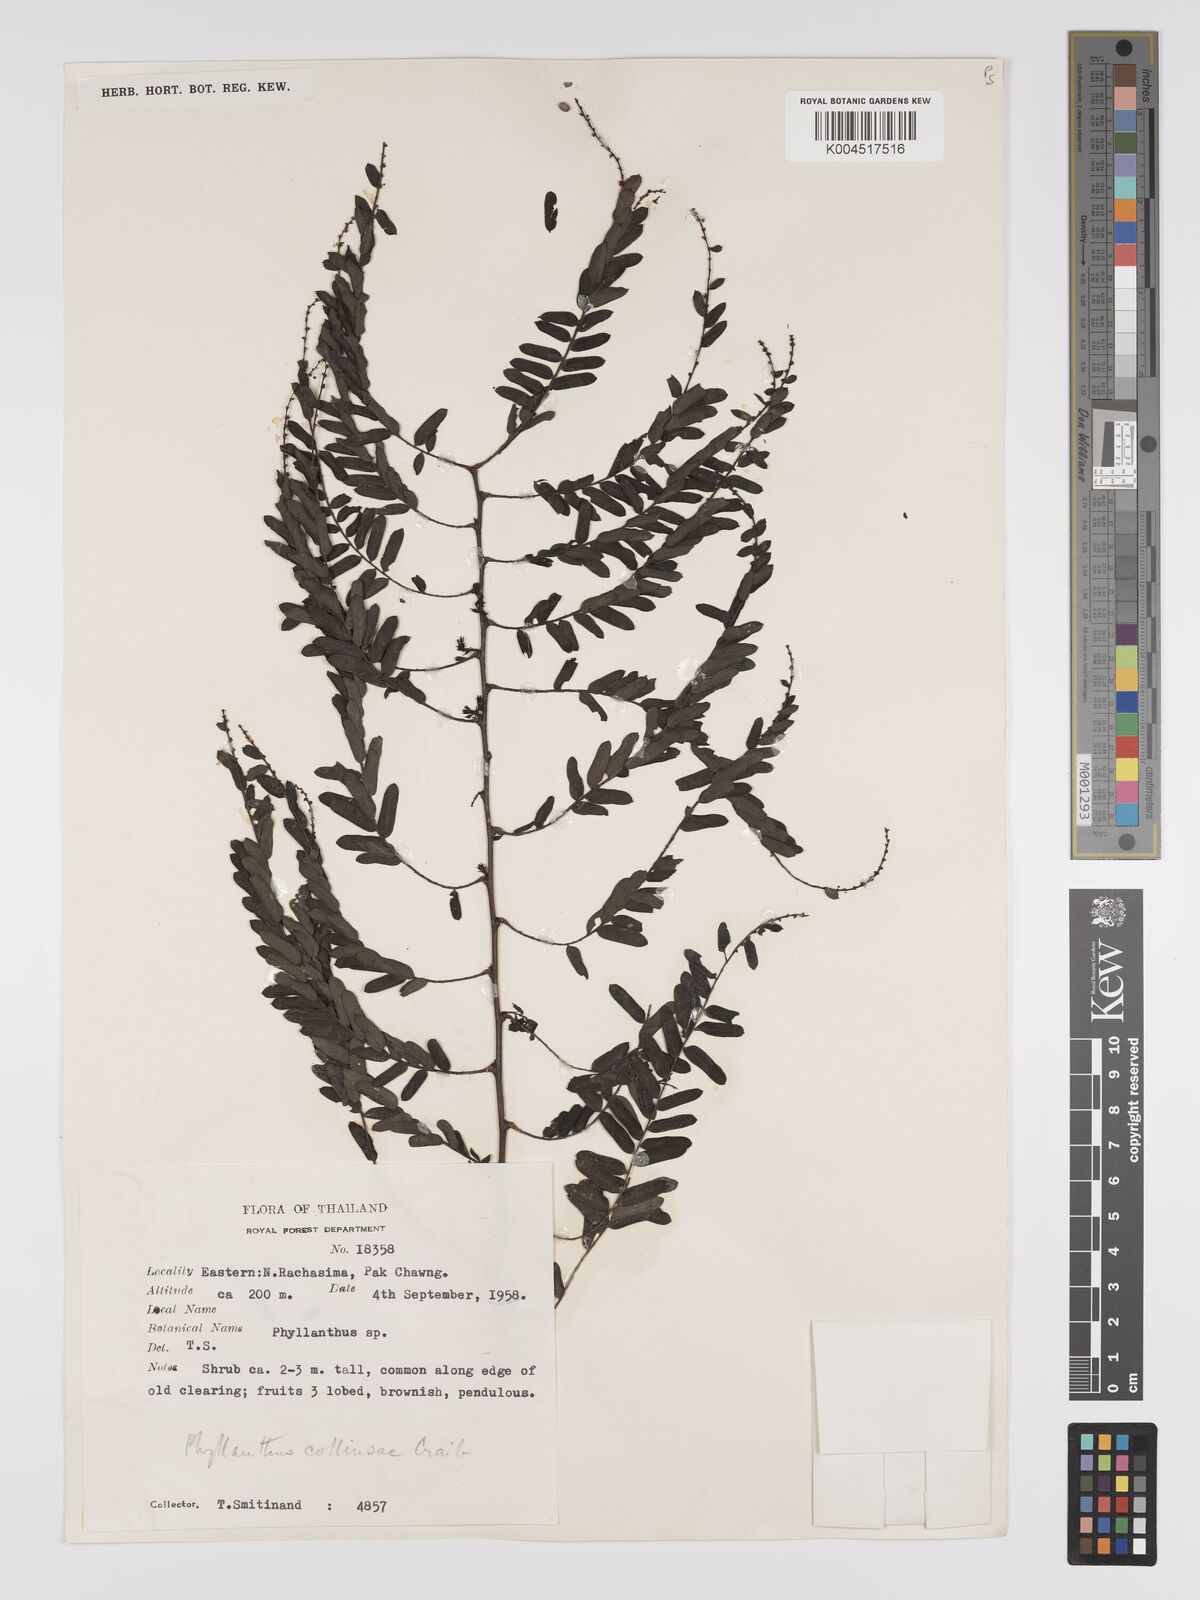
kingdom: Plantae
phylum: Tracheophyta
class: Magnoliopsida
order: Malpighiales
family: Phyllanthaceae
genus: Phyllanthus
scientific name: Phyllanthus collinsiae
